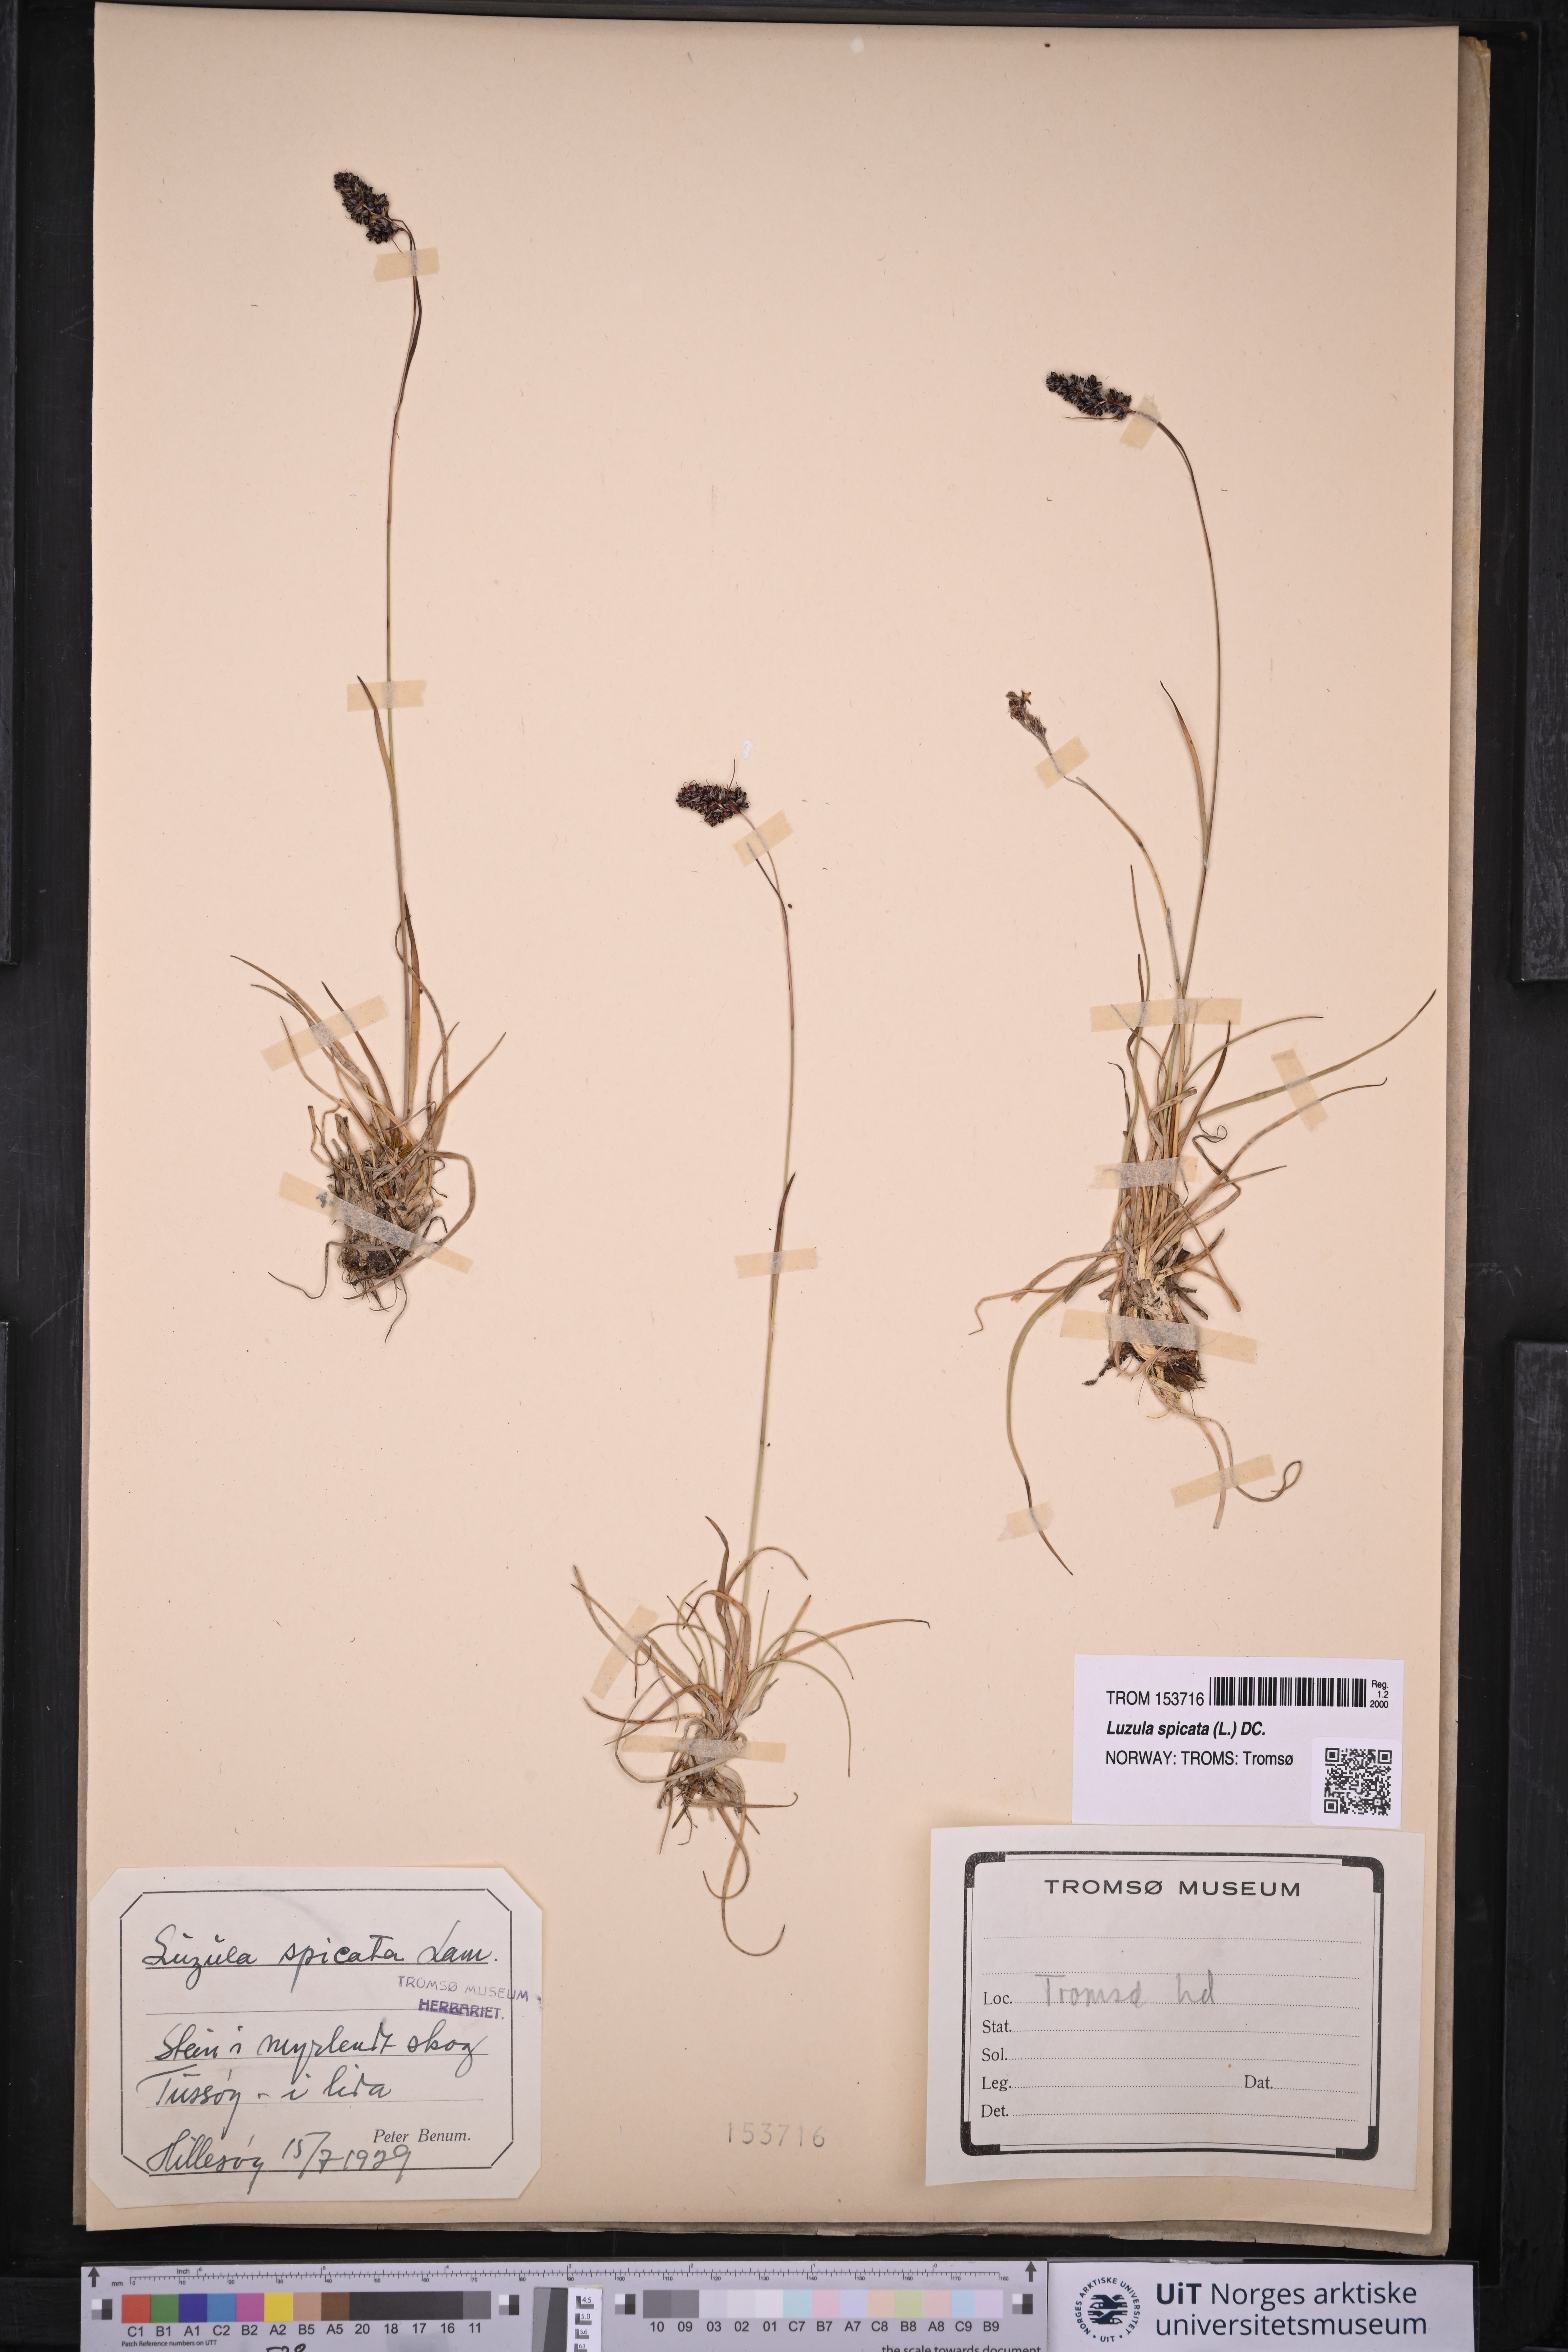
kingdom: Plantae
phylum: Tracheophyta
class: Liliopsida
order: Poales
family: Juncaceae
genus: Luzula
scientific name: Luzula spicata
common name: Spiked wood-rush
